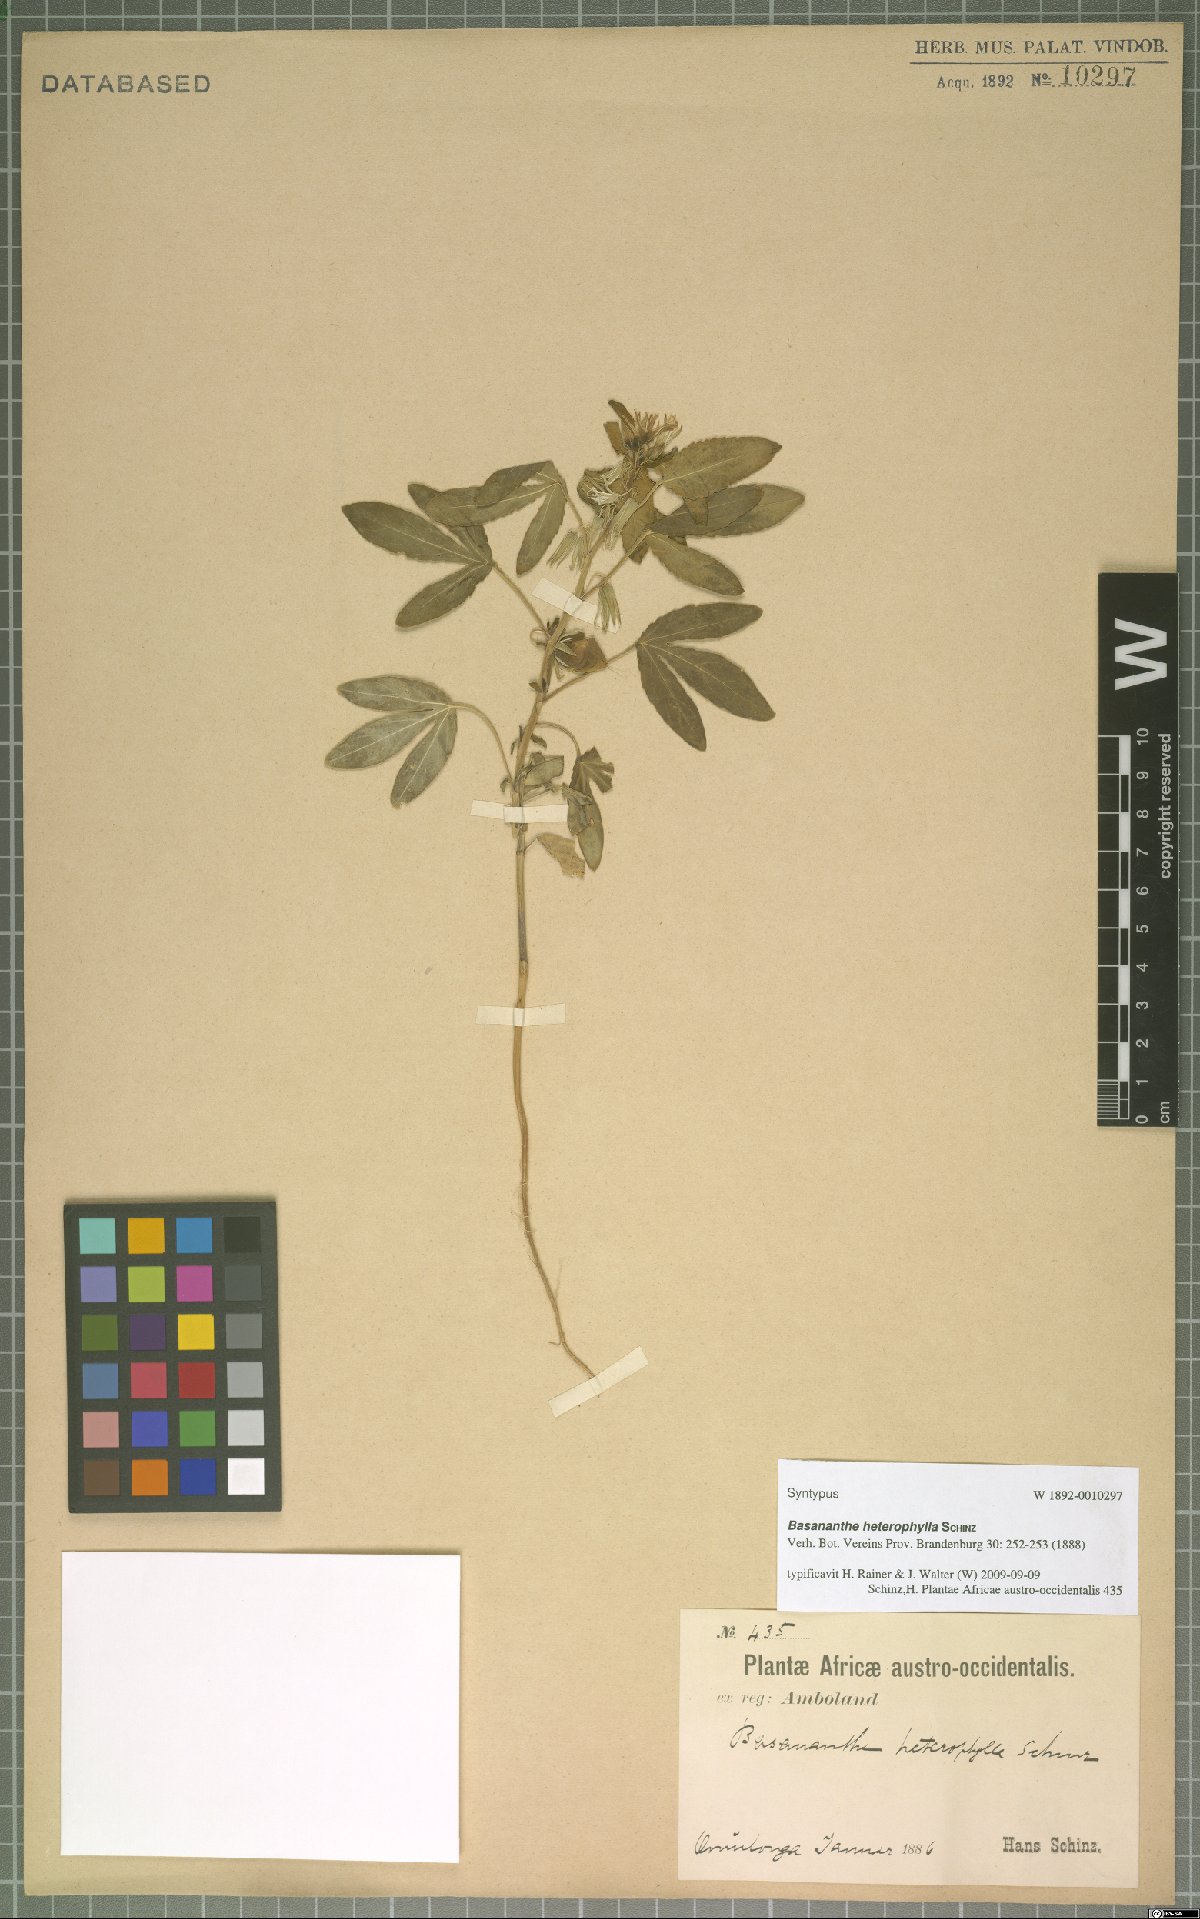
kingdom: Plantae
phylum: Tracheophyta
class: Magnoliopsida
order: Malpighiales
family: Passifloraceae
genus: Basananthe
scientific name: Basananthe heterophylla
